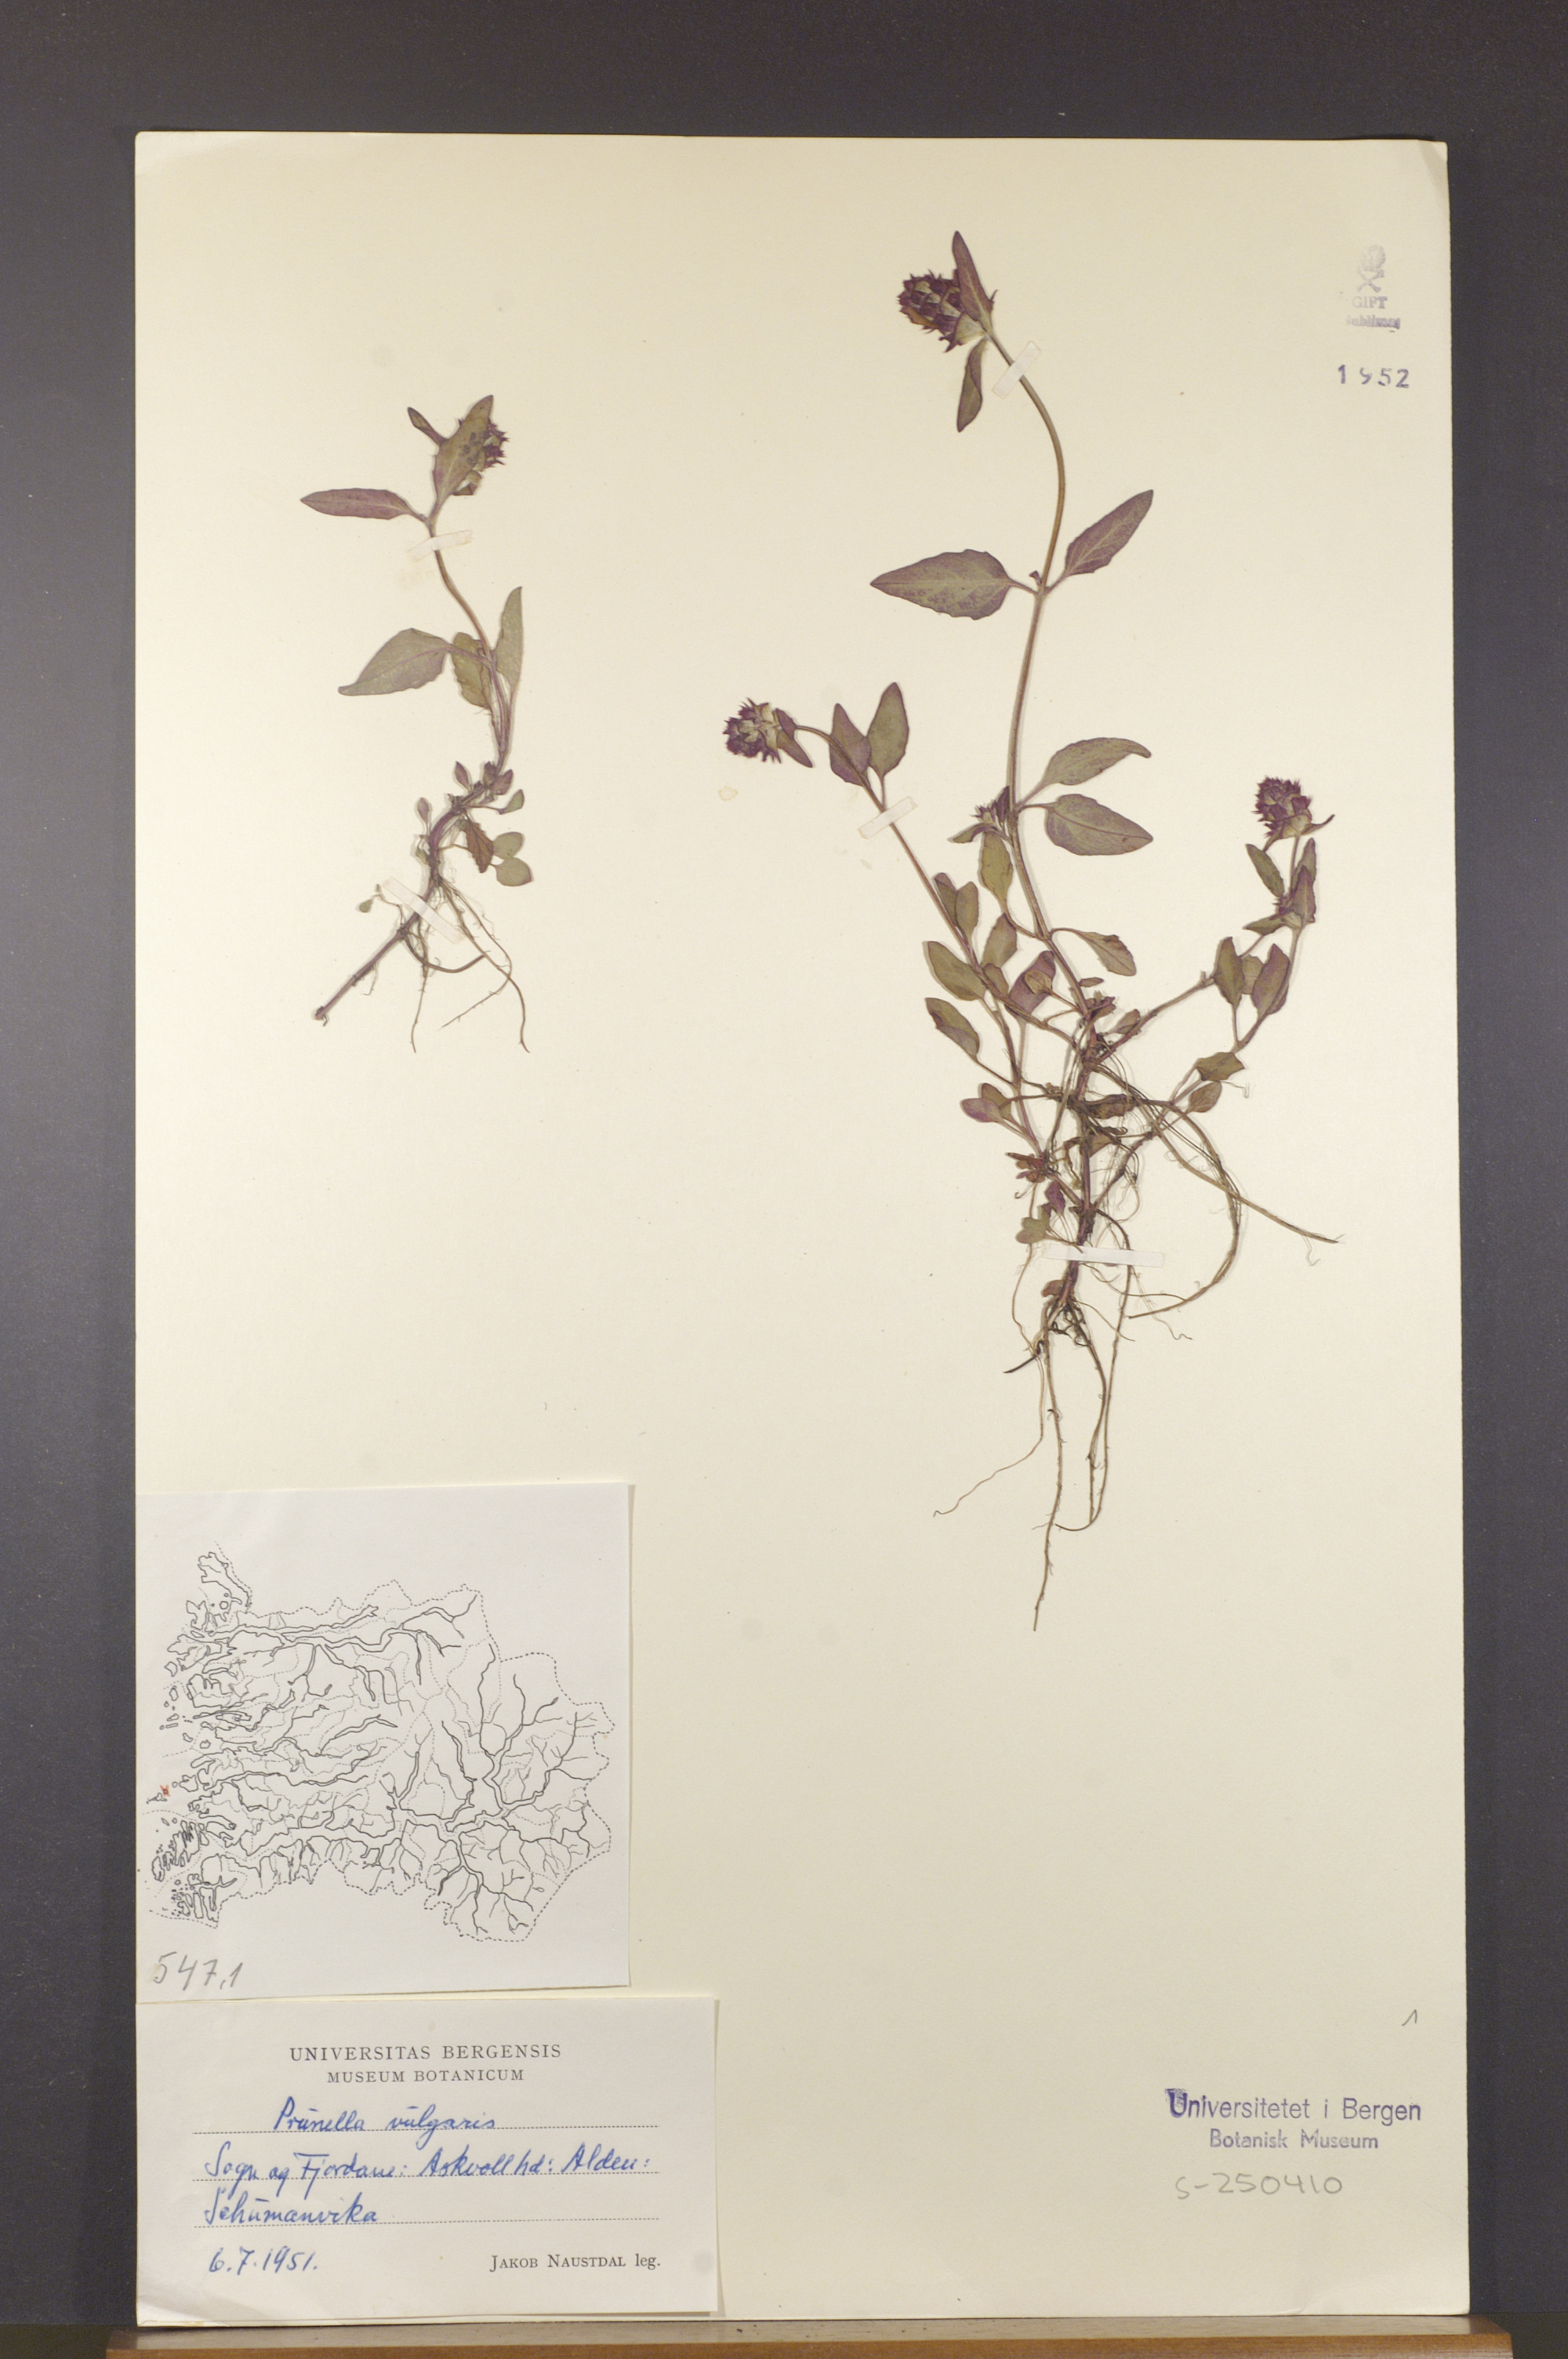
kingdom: Plantae
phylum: Tracheophyta
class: Magnoliopsida
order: Lamiales
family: Lamiaceae
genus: Prunella
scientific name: Prunella vulgaris
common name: Heal-all
